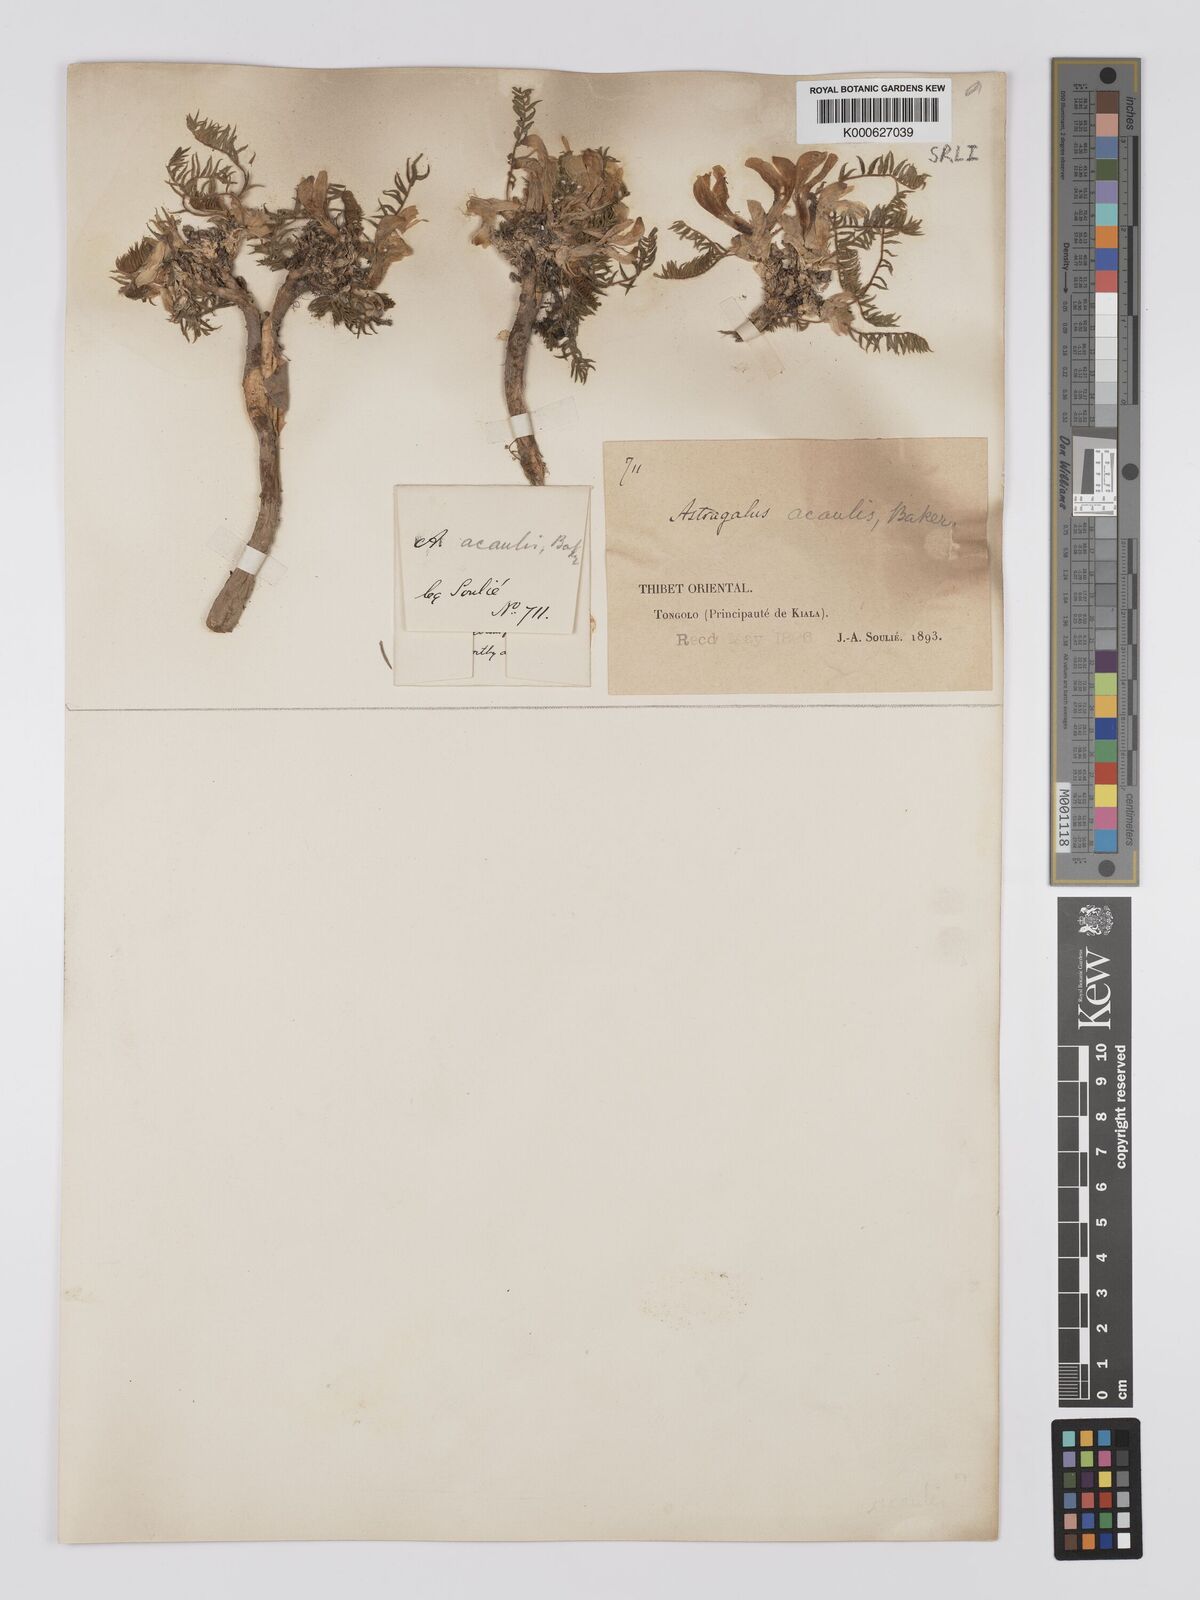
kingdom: Plantae
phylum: Tracheophyta
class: Magnoliopsida
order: Fabales
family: Fabaceae
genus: Astragalus
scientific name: Astragalus acaulis
